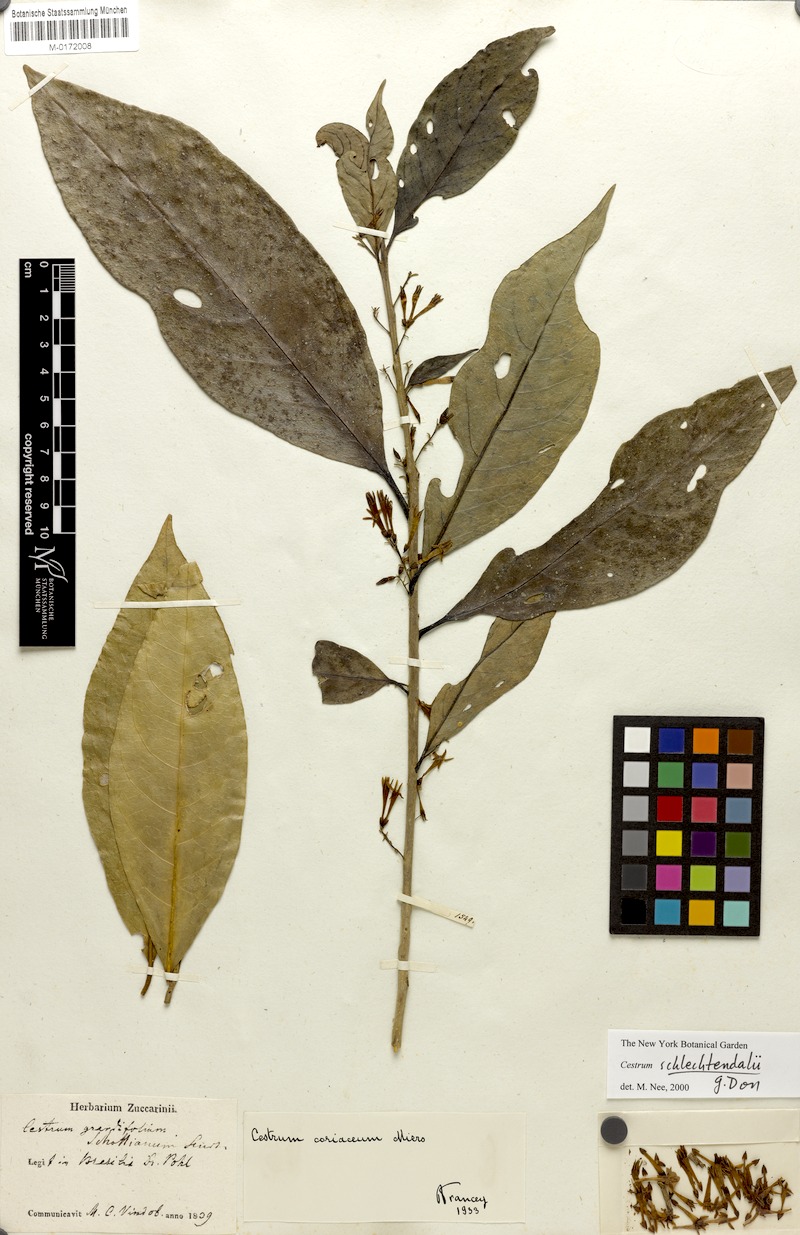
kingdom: Plantae
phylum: Tracheophyta
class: Magnoliopsida
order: Solanales
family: Solanaceae
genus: Cestrum
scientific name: Cestrum schlechtendalii
